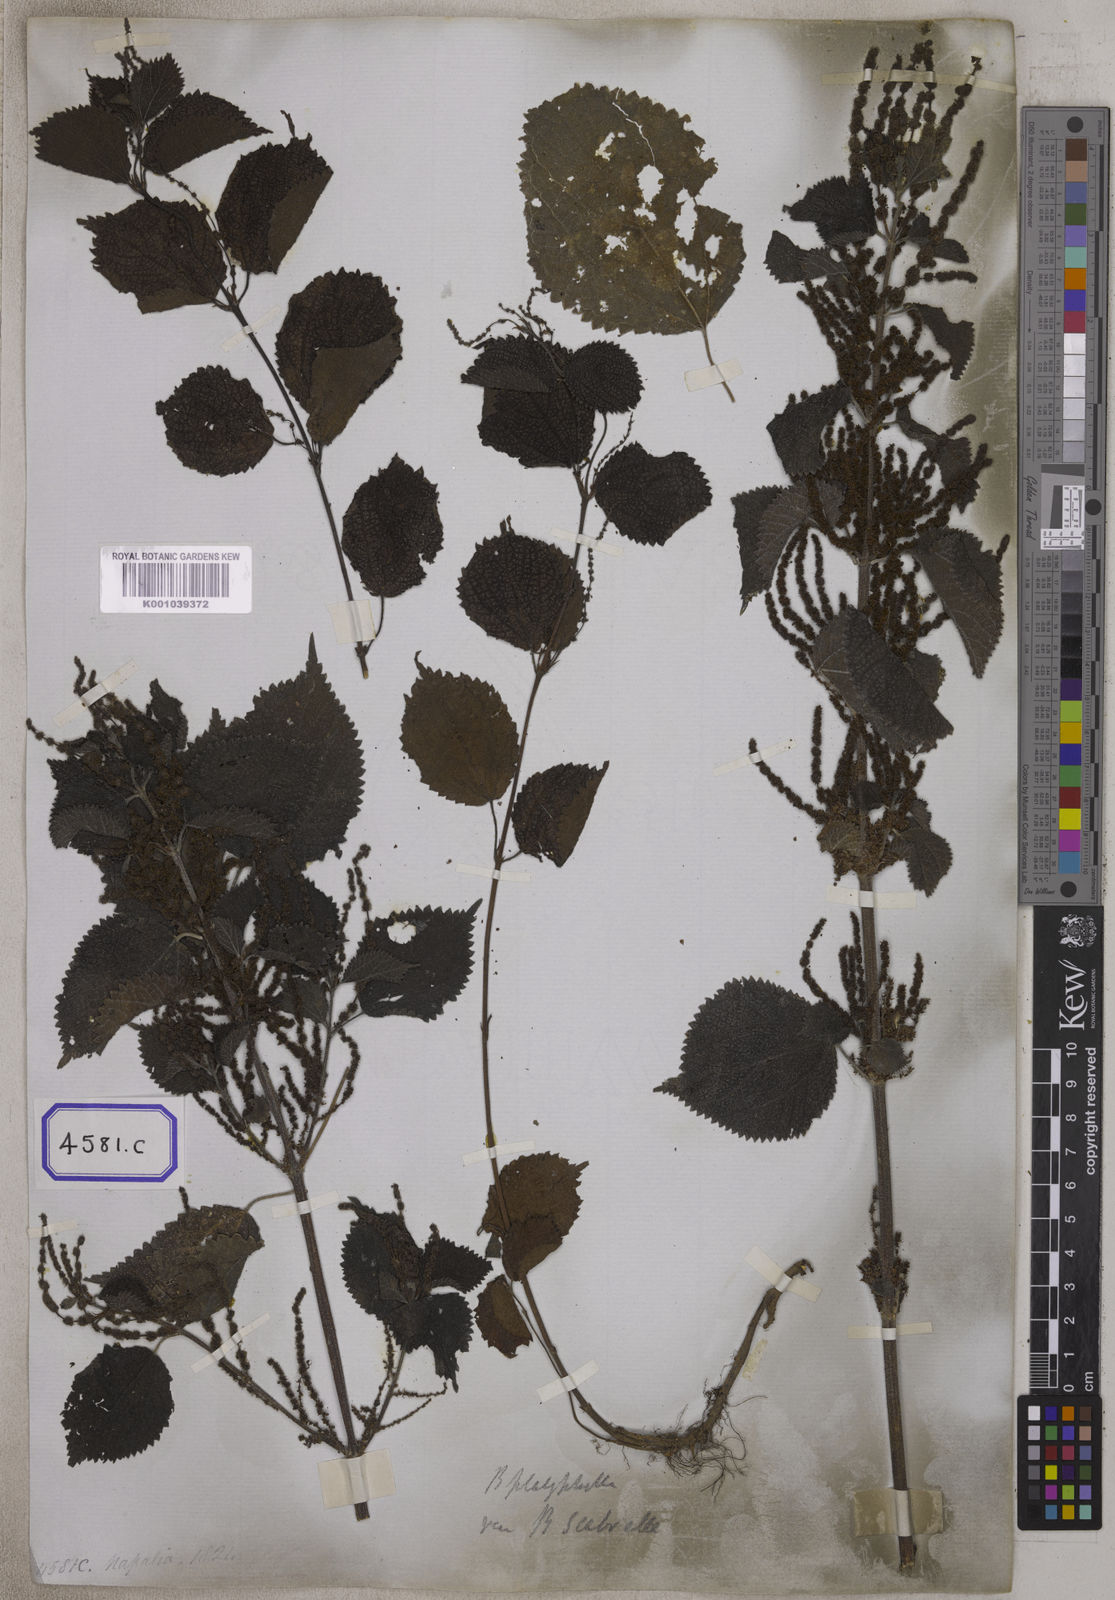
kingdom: Plantae
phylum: Tracheophyta
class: Magnoliopsida
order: Rosales
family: Urticaceae
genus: Boehmeria
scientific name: Boehmeria virgata
